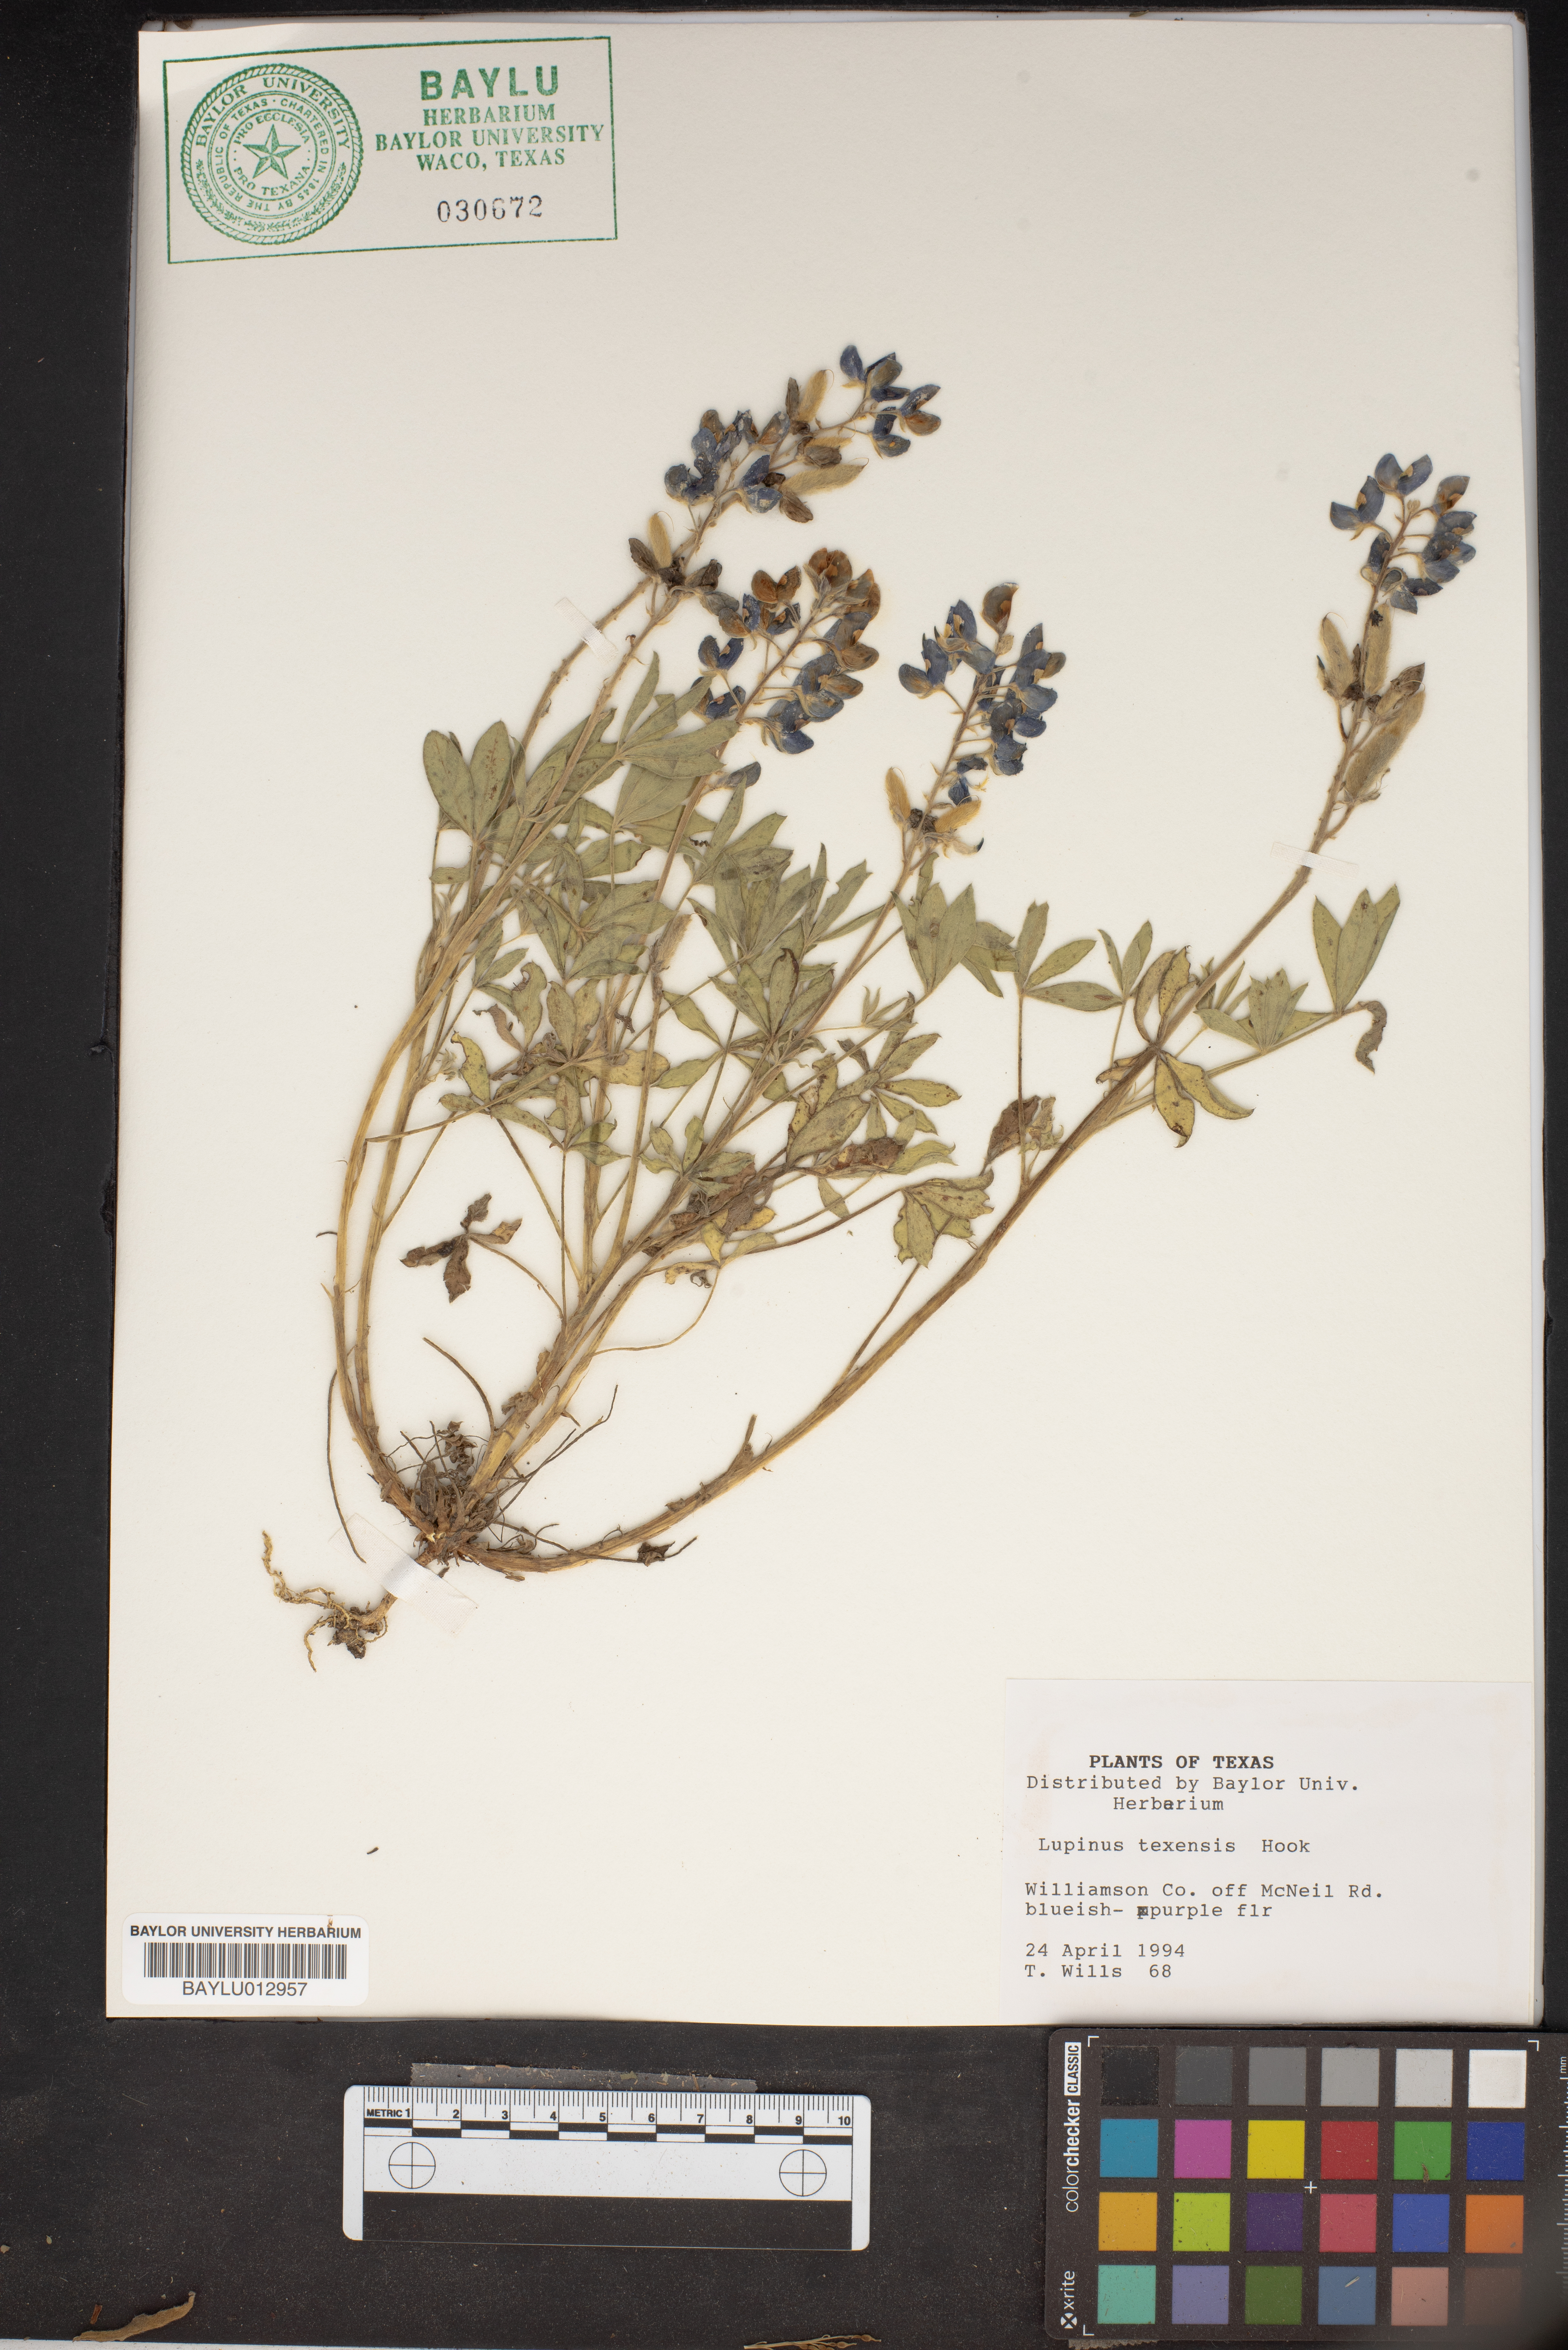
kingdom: Plantae
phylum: Tracheophyta
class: Magnoliopsida
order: Fabales
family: Fabaceae
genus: Lupinus
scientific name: Lupinus texensis
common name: Texas bluebonnet
